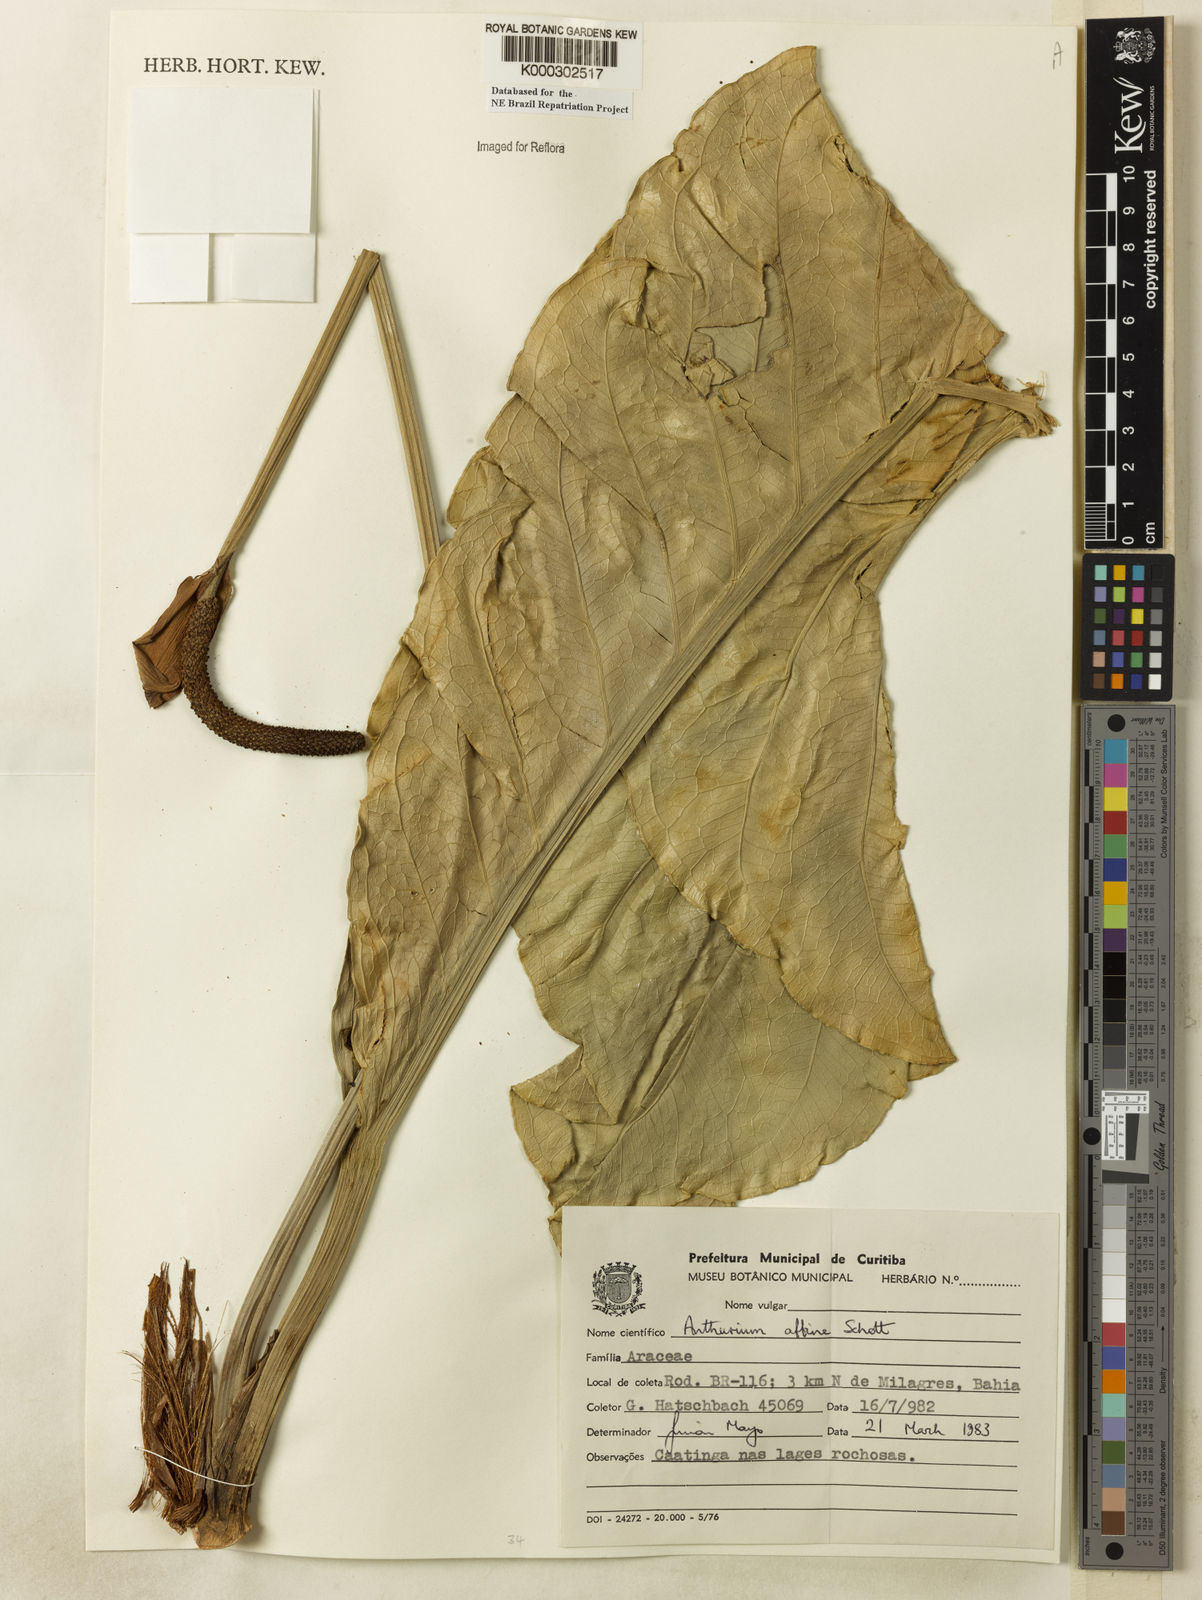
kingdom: Plantae
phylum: Tracheophyta
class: Liliopsida
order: Alismatales
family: Araceae
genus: Anthurium
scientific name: Anthurium affine
